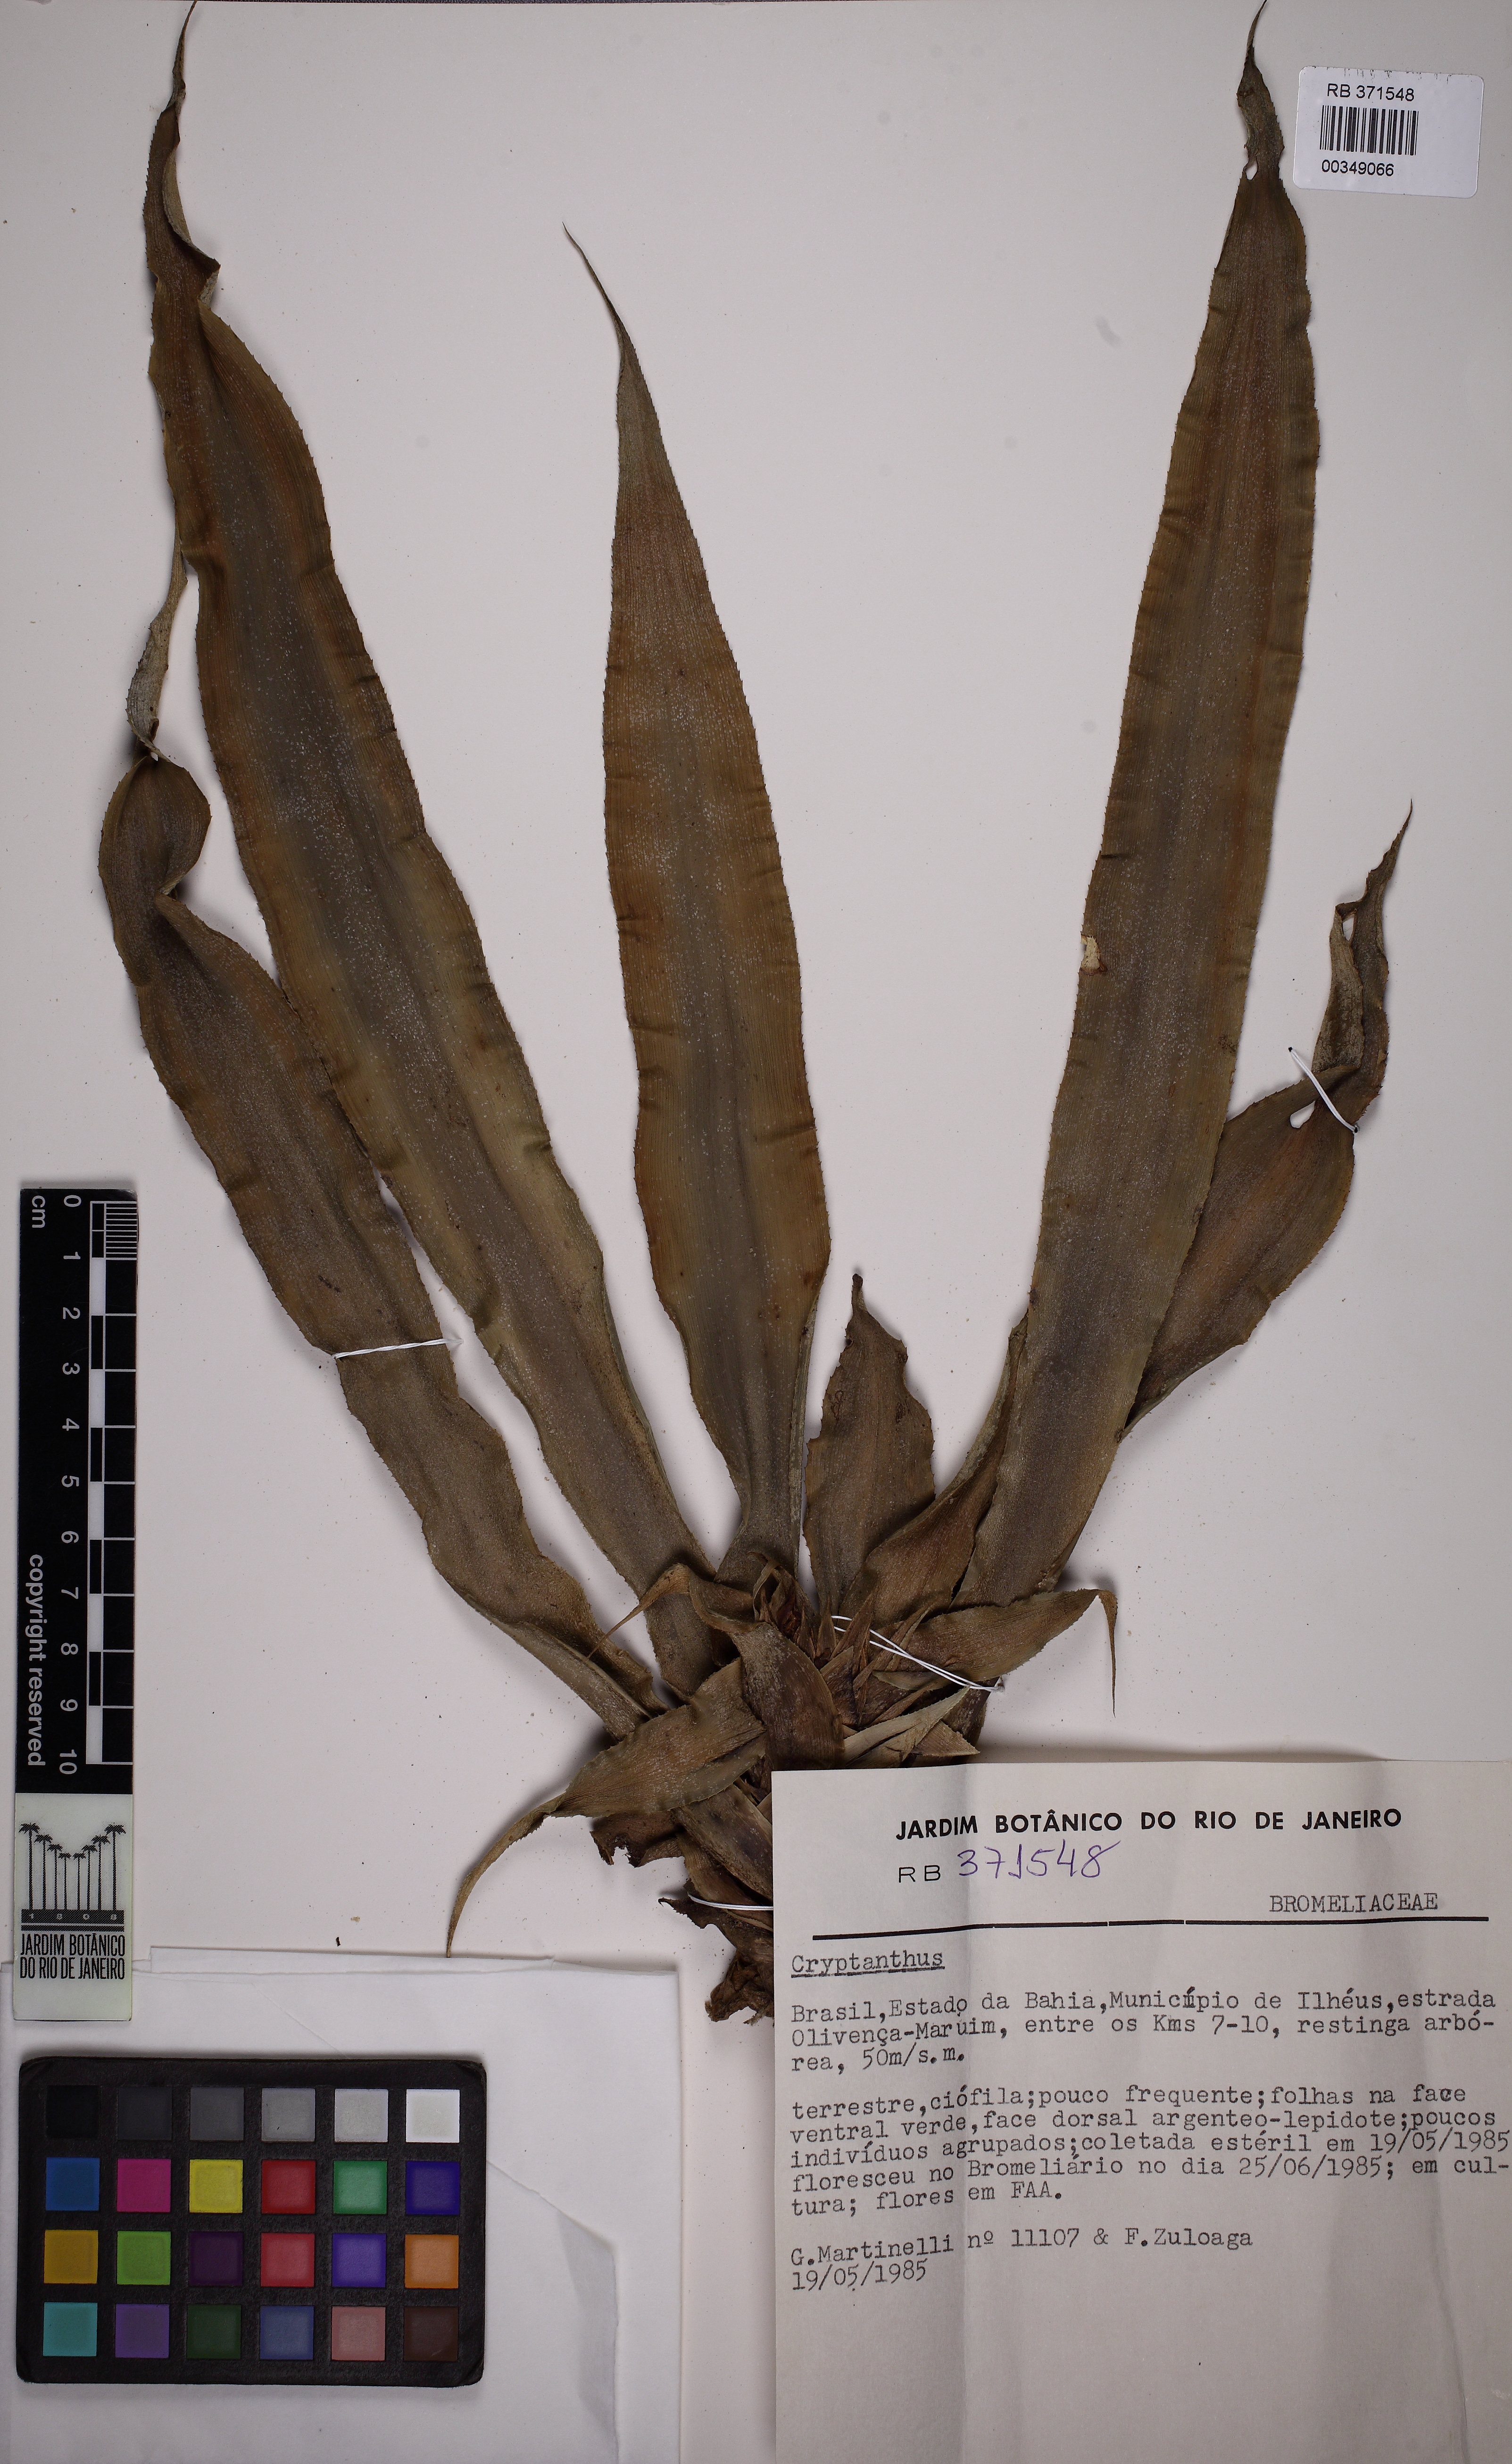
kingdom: Plantae
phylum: Tracheophyta
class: Liliopsida
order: Poales
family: Bromeliaceae
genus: Cryptanthus
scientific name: Cryptanthus pseudopetiolatus
